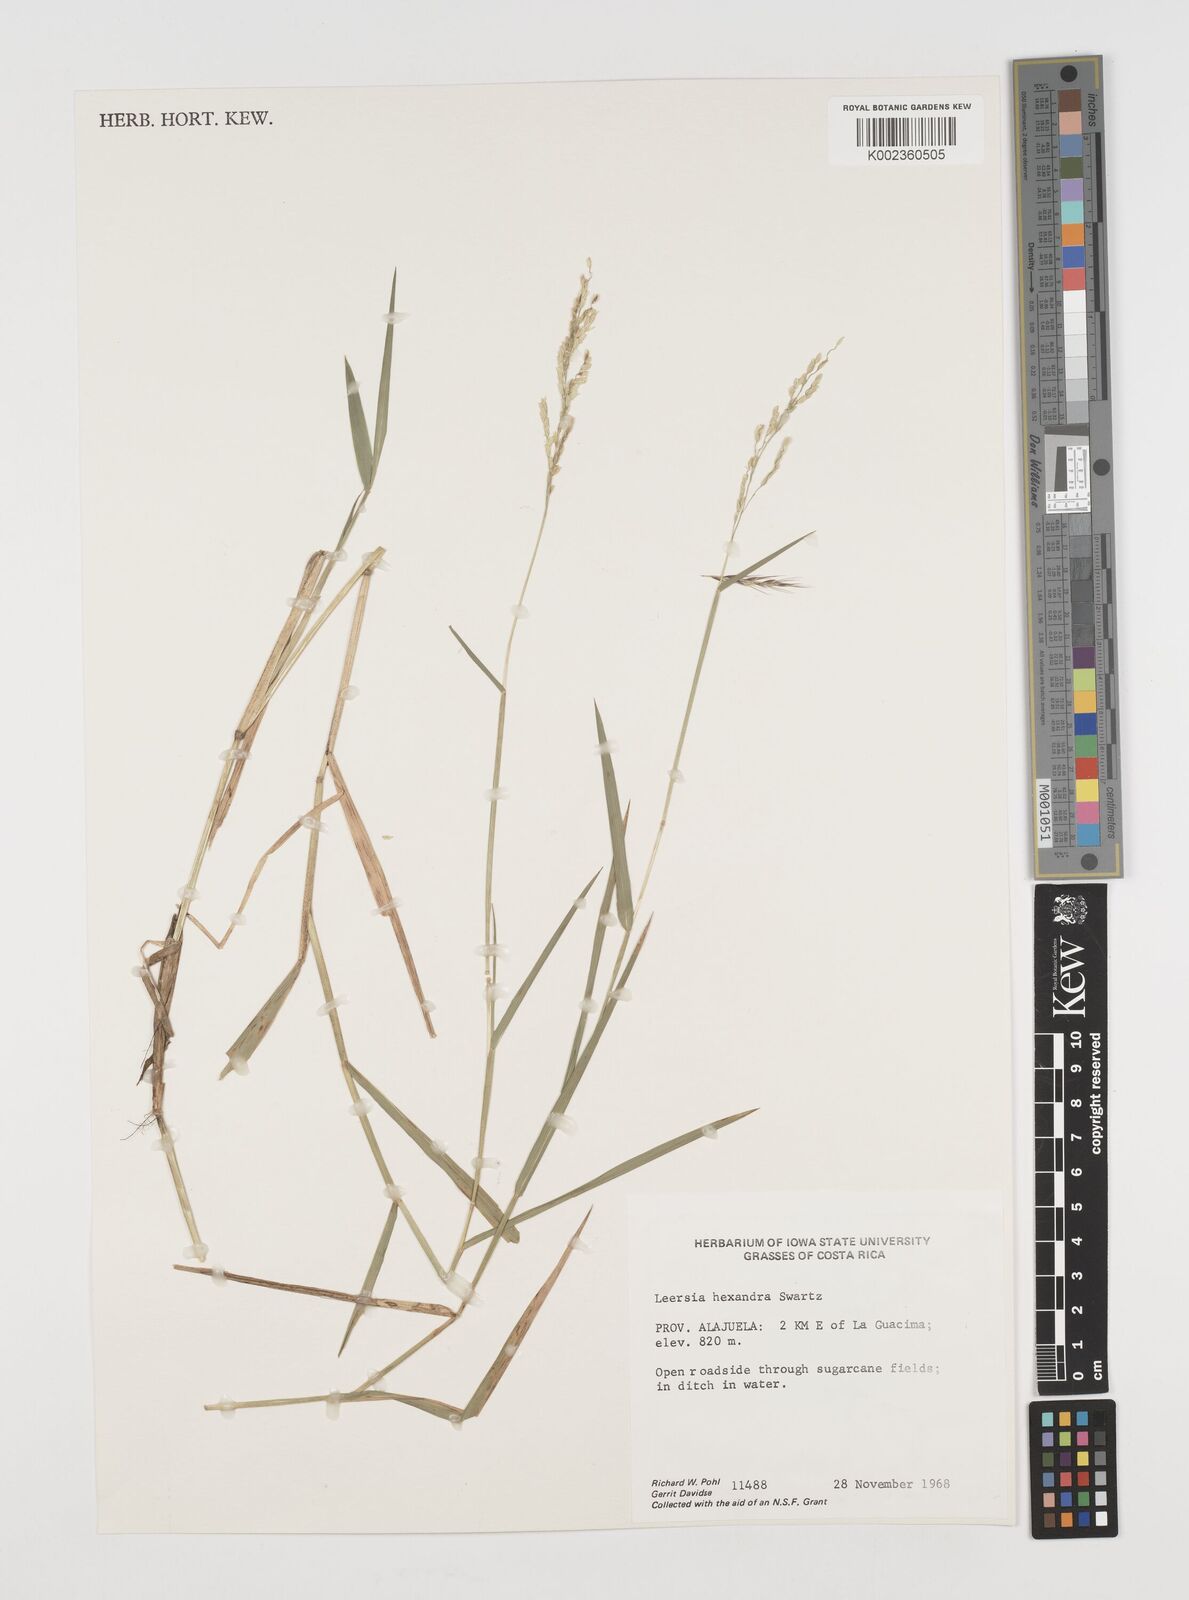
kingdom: Plantae
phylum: Tracheophyta
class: Liliopsida
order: Poales
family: Poaceae
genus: Leersia
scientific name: Leersia hexandra
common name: Southern cut grass
